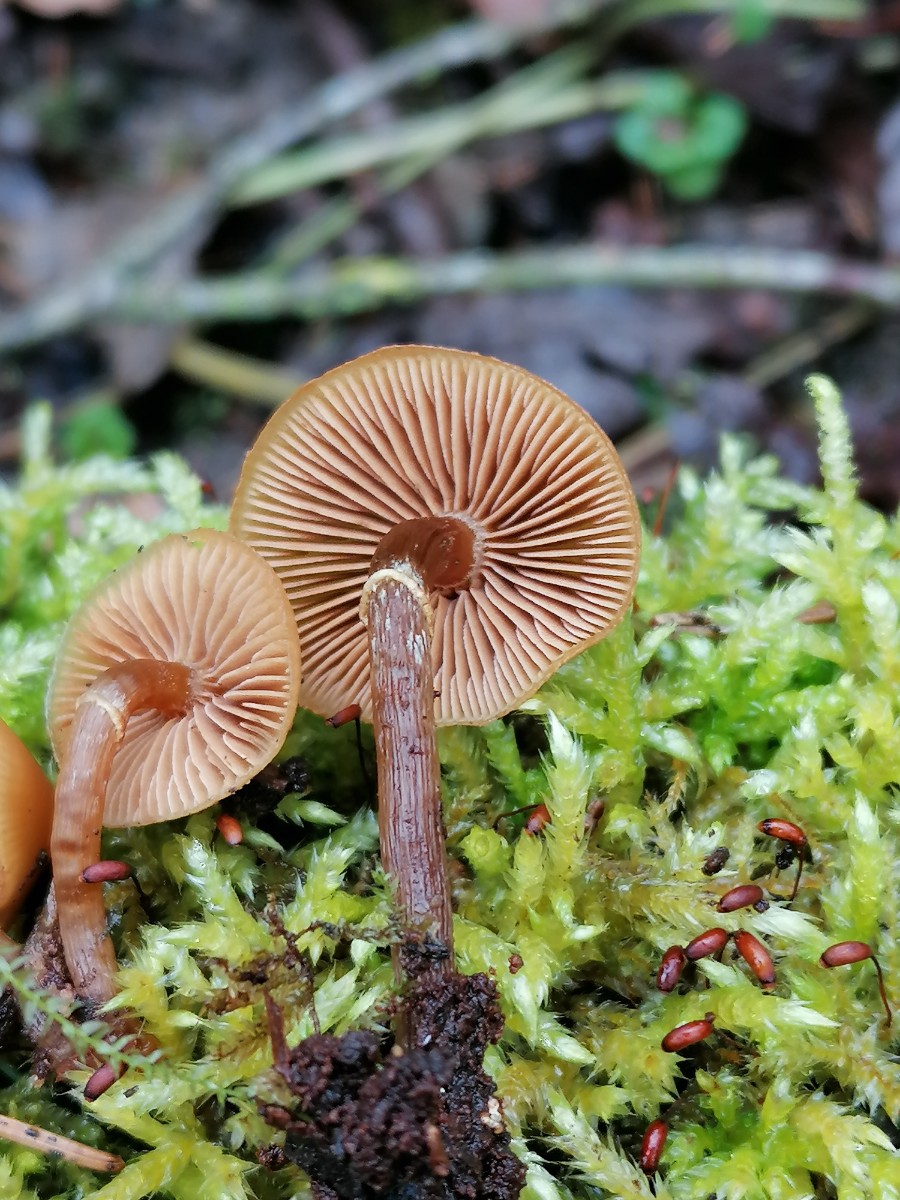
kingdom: Fungi
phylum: Basidiomycota
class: Agaricomycetes
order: Agaricales
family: Hymenogastraceae
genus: Galerina
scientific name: Galerina marginata
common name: randbæltet hjelmhat
